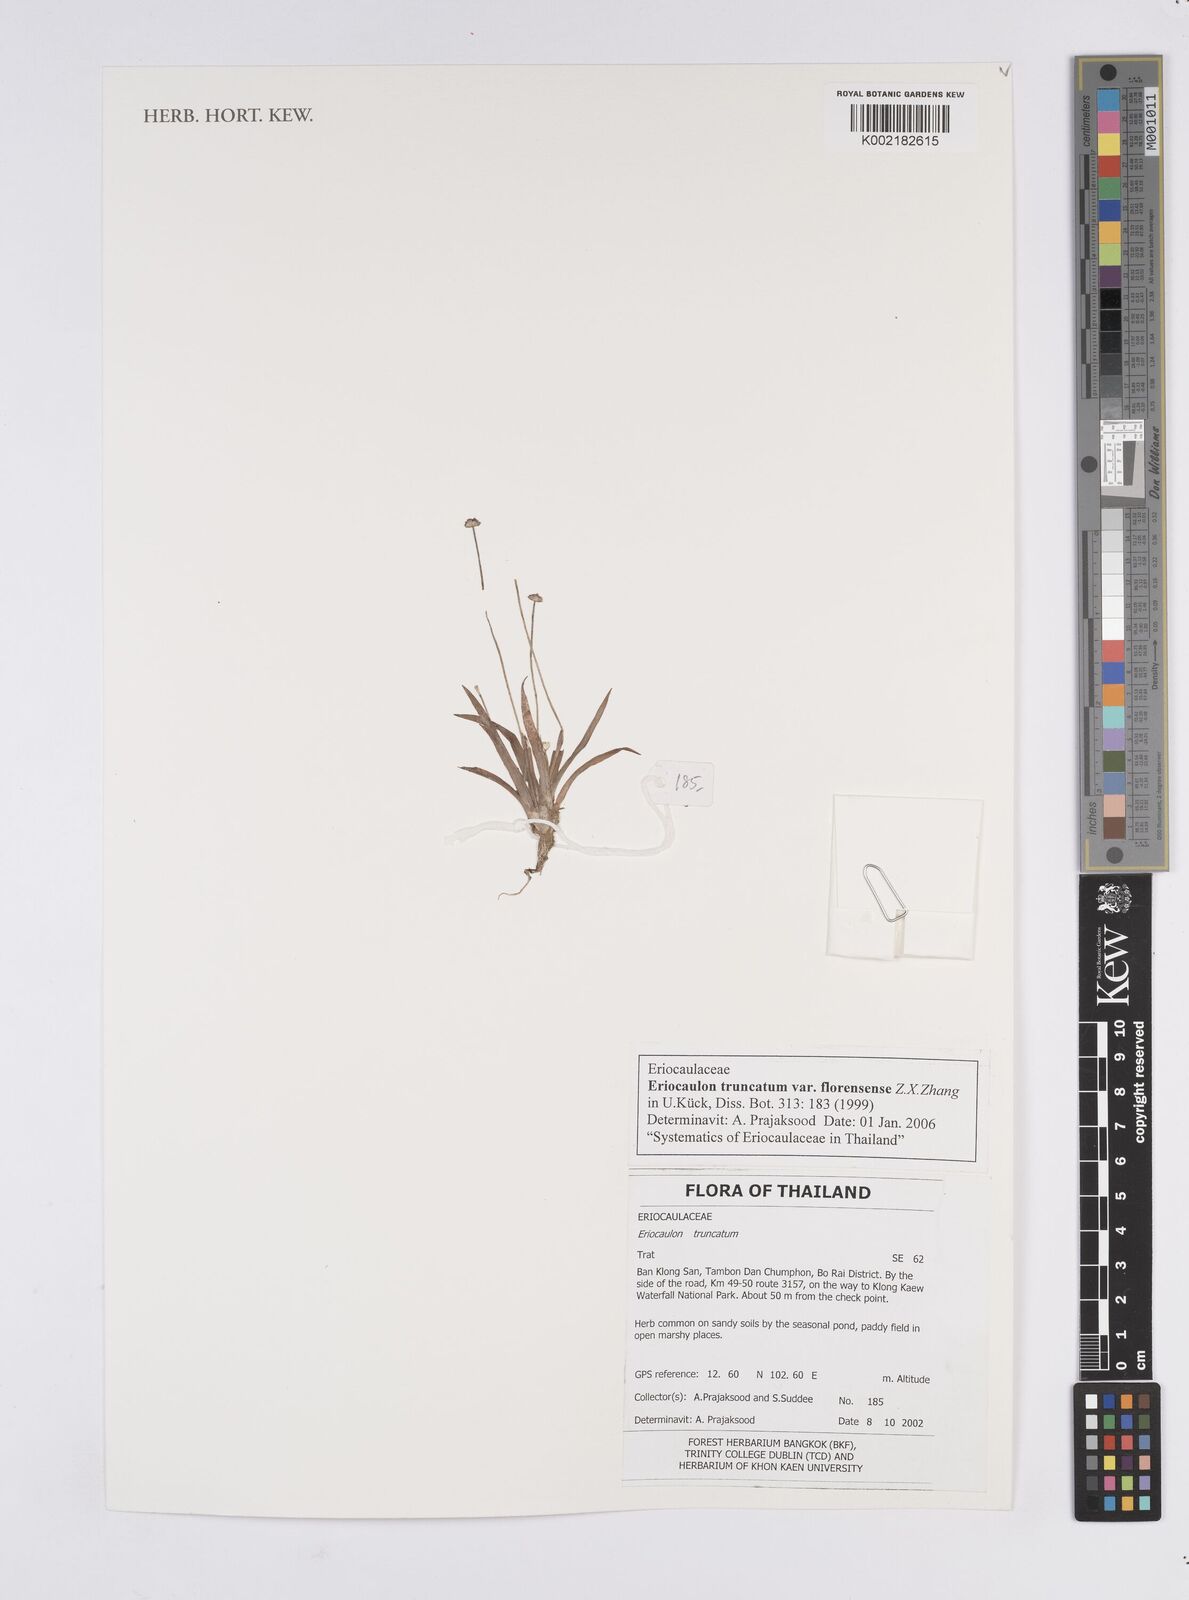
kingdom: Plantae
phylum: Tracheophyta
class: Liliopsida
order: Poales
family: Eriocaulaceae
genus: Eriocaulon
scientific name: Eriocaulon truncatum
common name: Short pipe-wort
